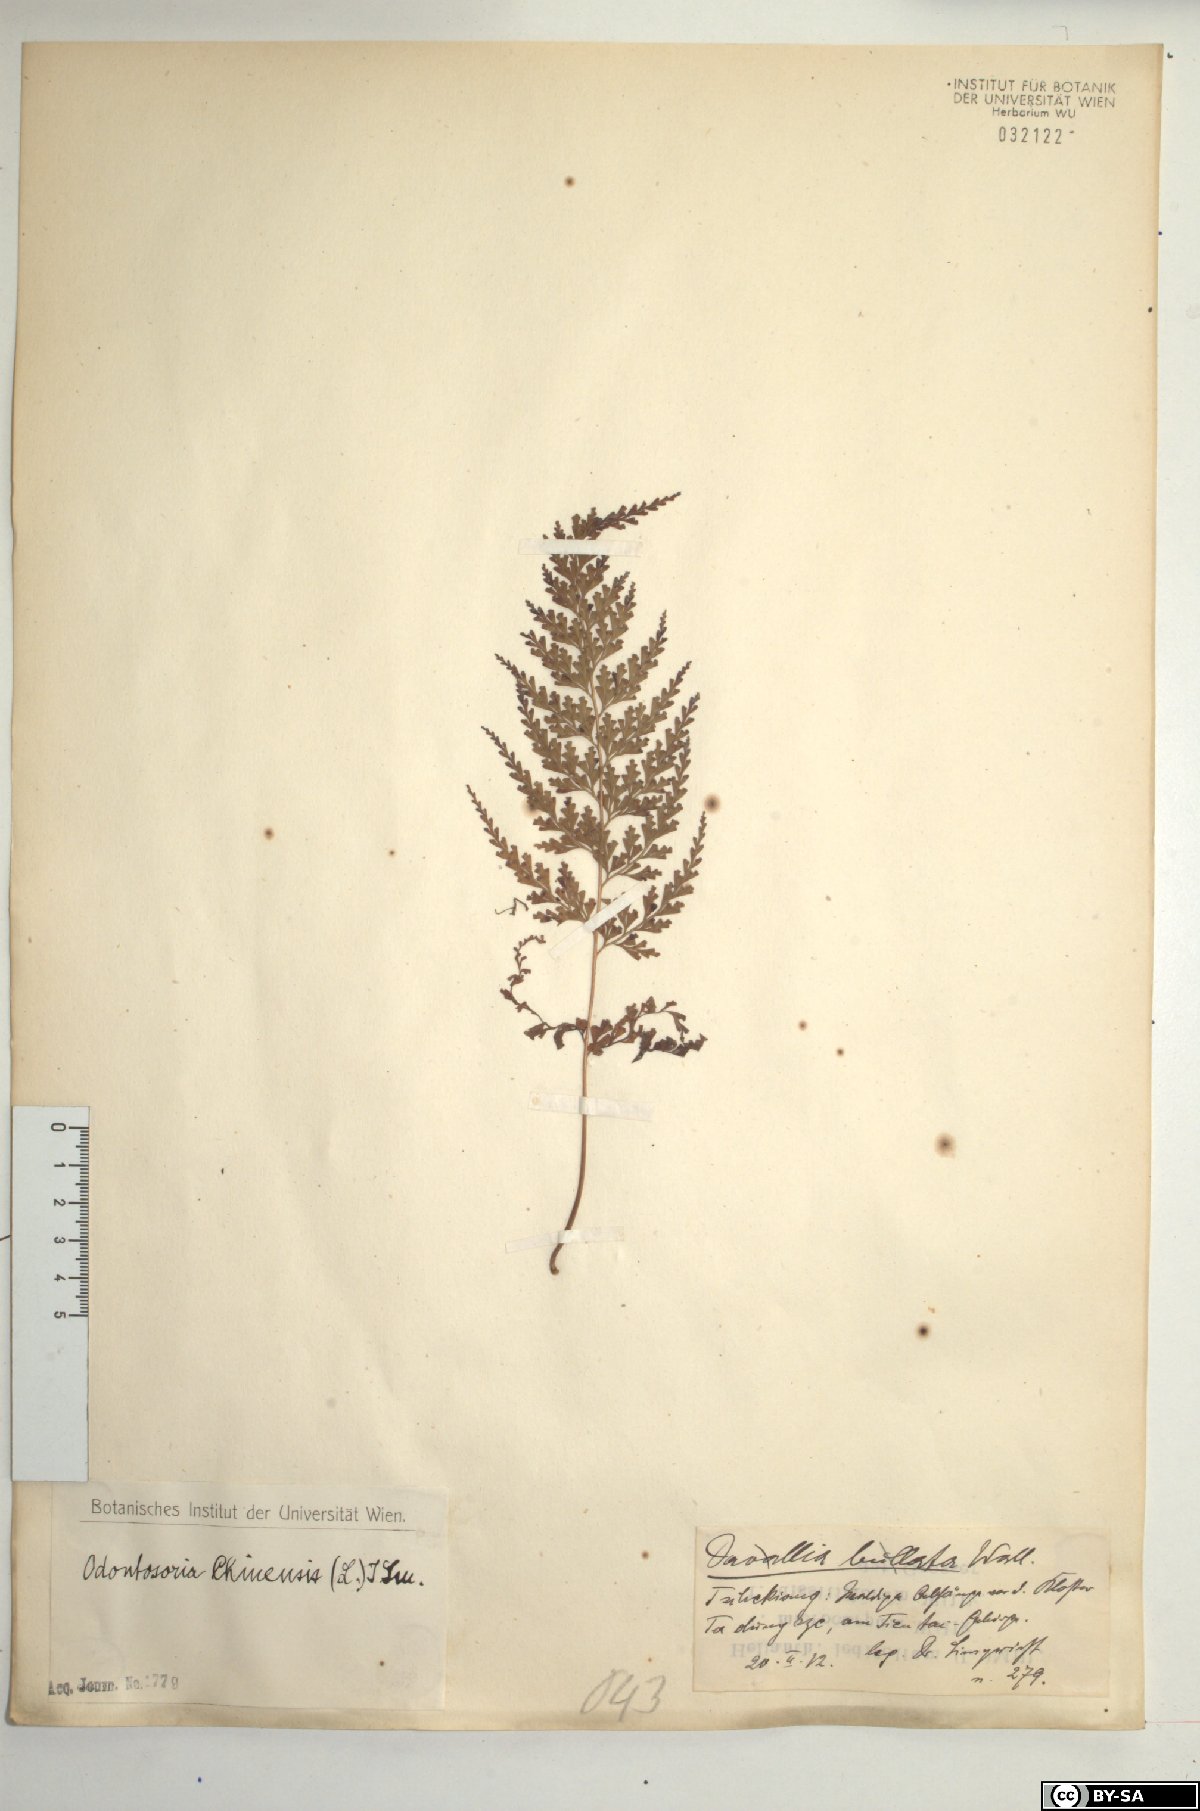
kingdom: Plantae
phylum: Tracheophyta
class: Polypodiopsida
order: Polypodiales
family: Lindsaeaceae
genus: Odontosoria
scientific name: Odontosoria chinensis
